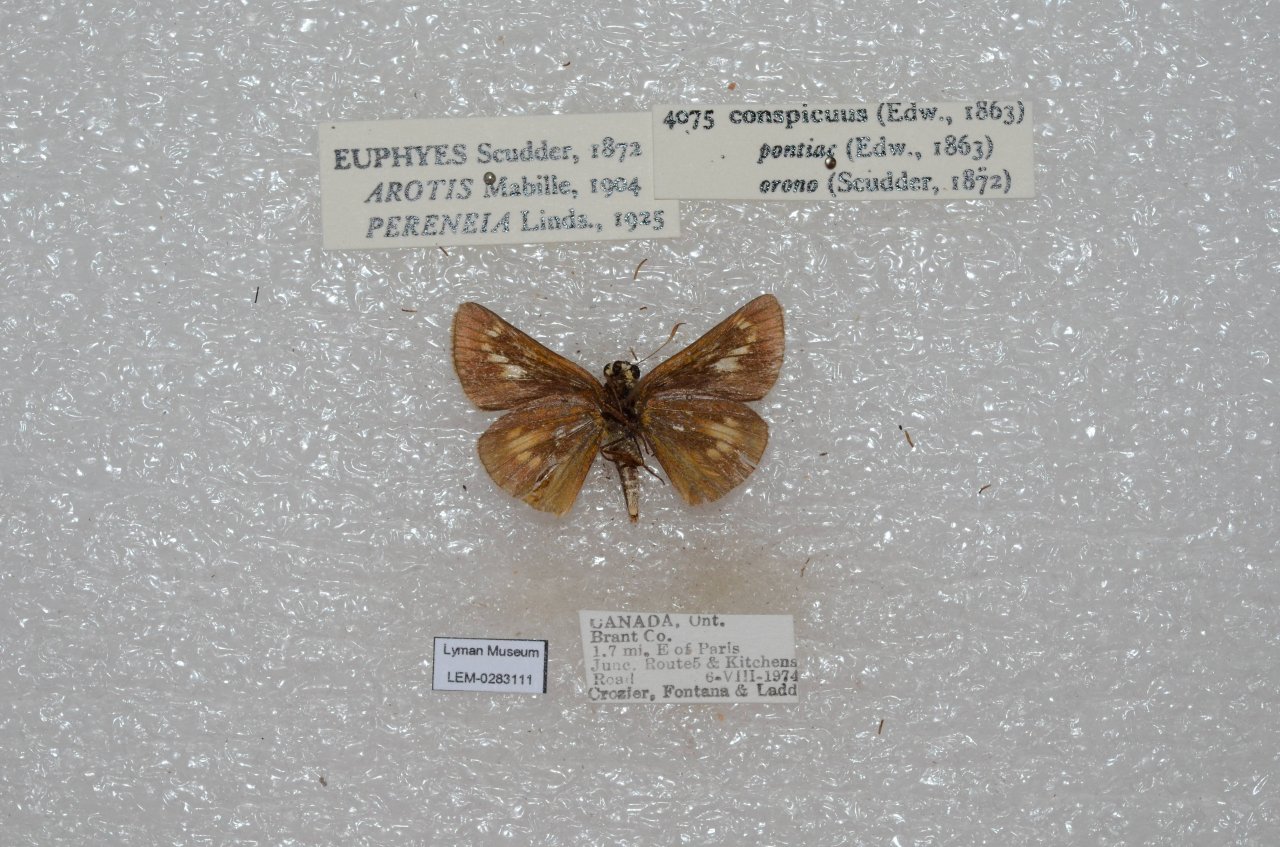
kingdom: Animalia
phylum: Arthropoda
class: Insecta
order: Lepidoptera
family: Hesperiidae
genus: Euphyes
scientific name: Euphyes conspicua
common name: Black Dash
